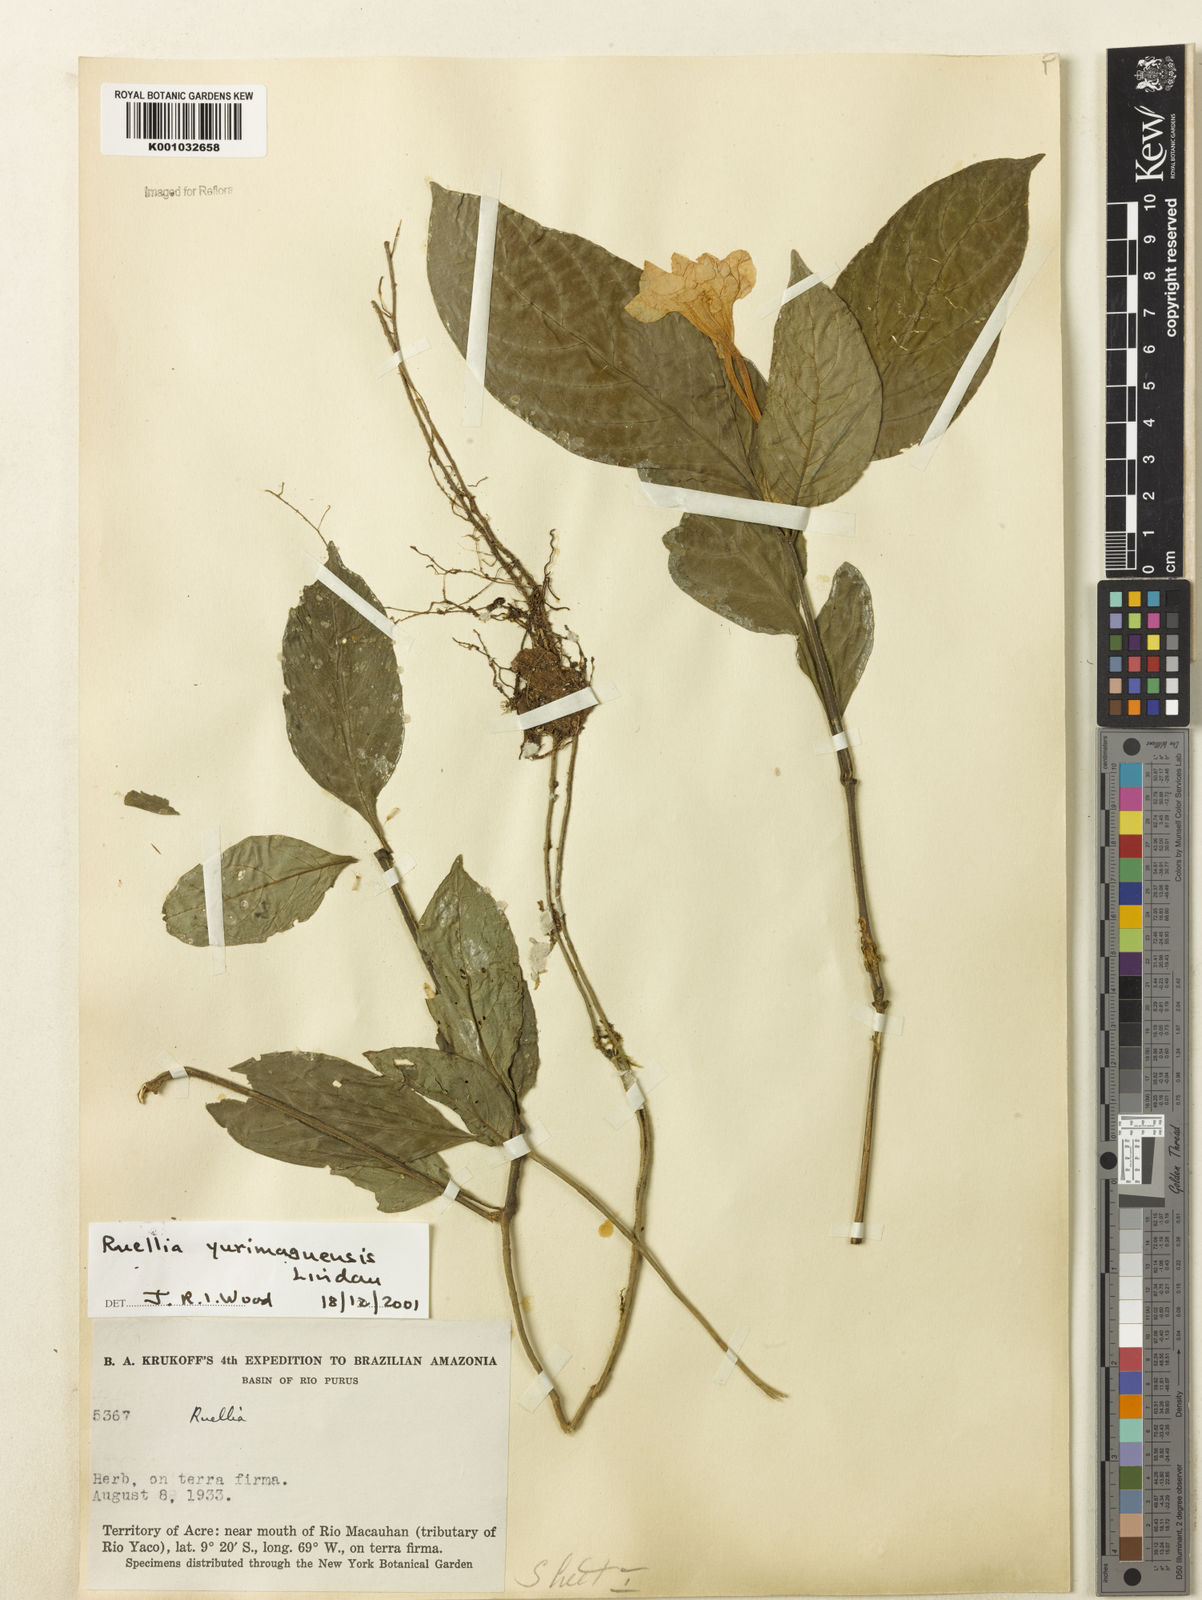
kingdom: Plantae
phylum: Tracheophyta
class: Magnoliopsida
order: Lamiales
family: Acanthaceae
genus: Ruellia
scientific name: Ruellia yurimaguensis
